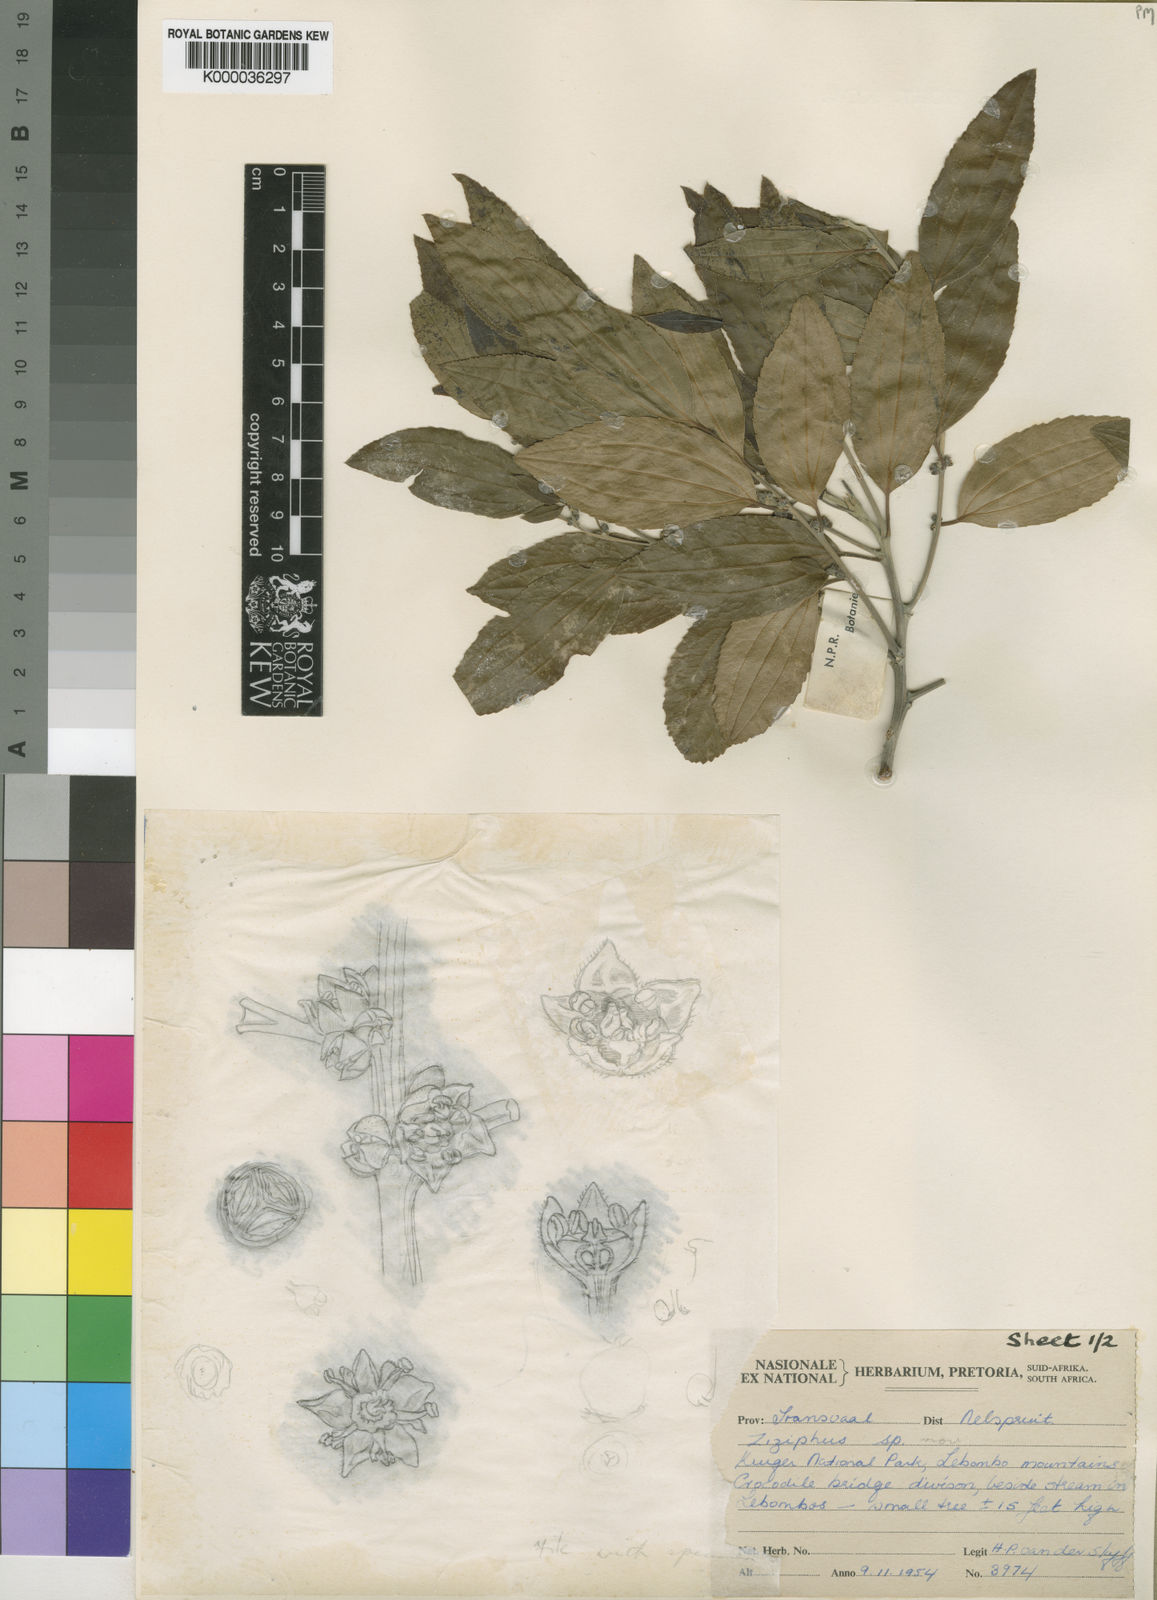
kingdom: Plantae
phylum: Tracheophyta
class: Magnoliopsida
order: Rosales
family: Rhamnaceae
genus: Ziziphus
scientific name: Ziziphus rivularis
